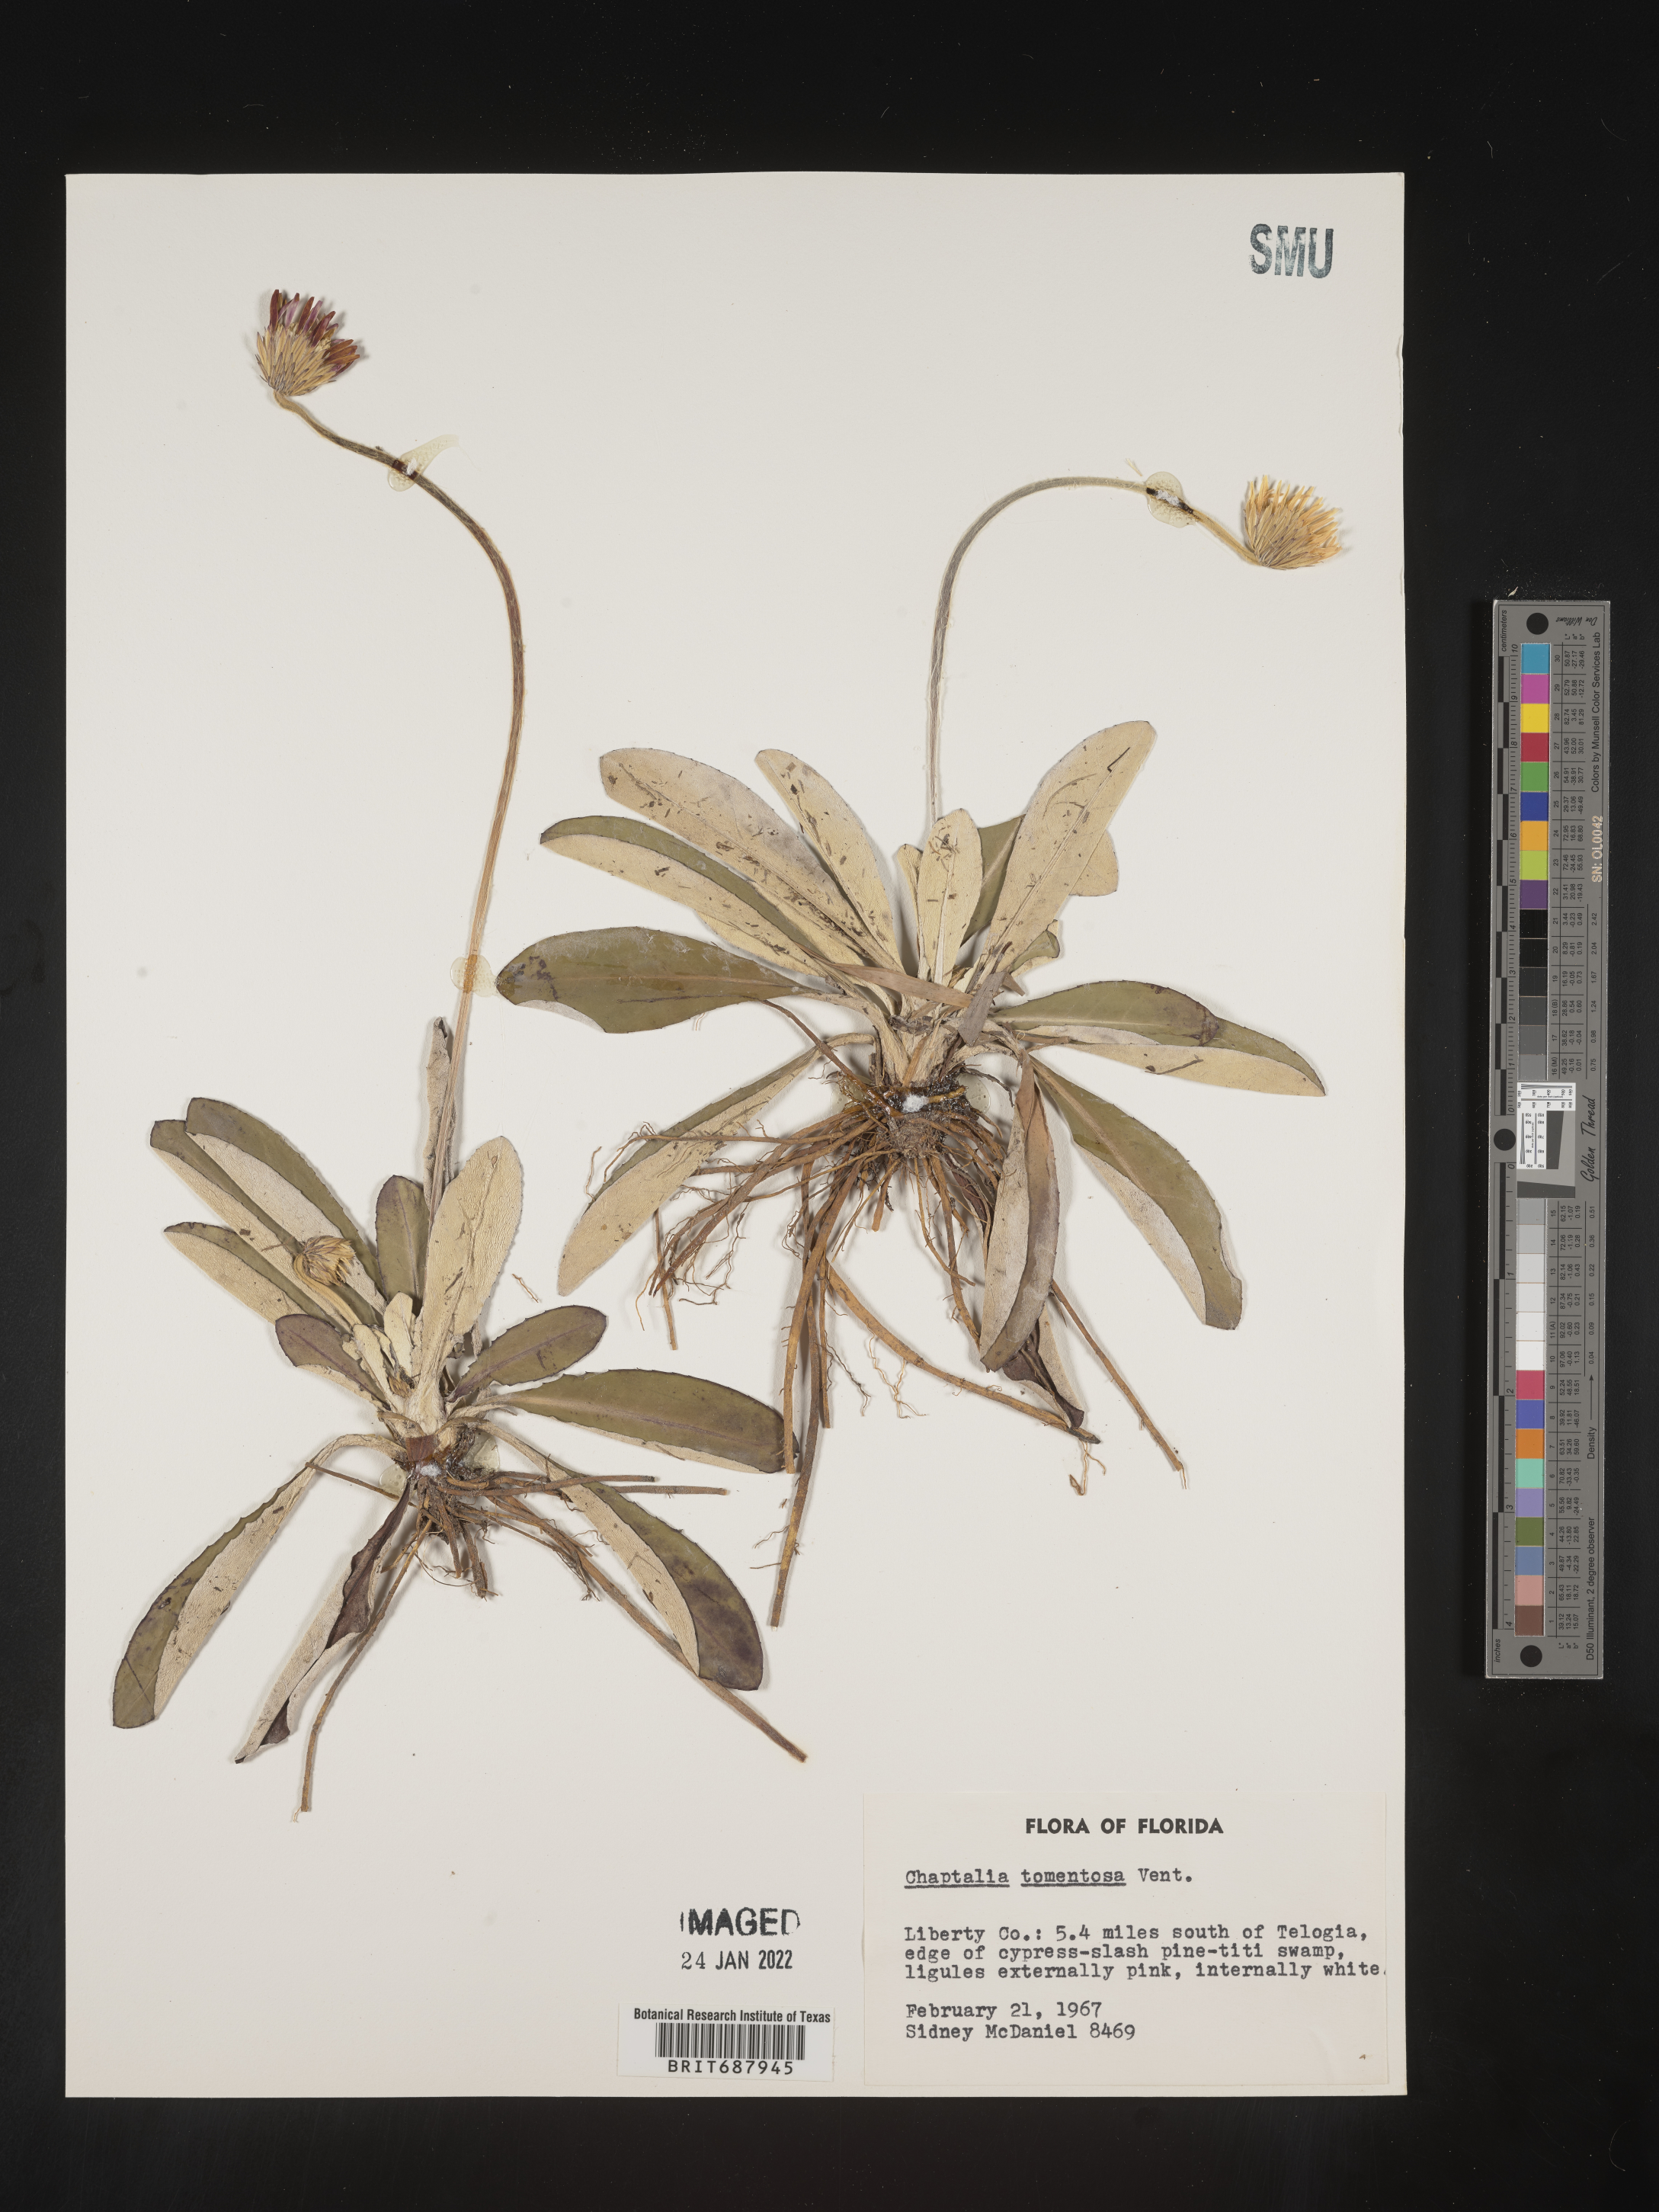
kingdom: Plantae
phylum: Tracheophyta
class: Magnoliopsida
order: Asterales
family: Asteraceae
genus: Chaptalia
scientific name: Chaptalia tomentosa
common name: Woolly sunbonnet
